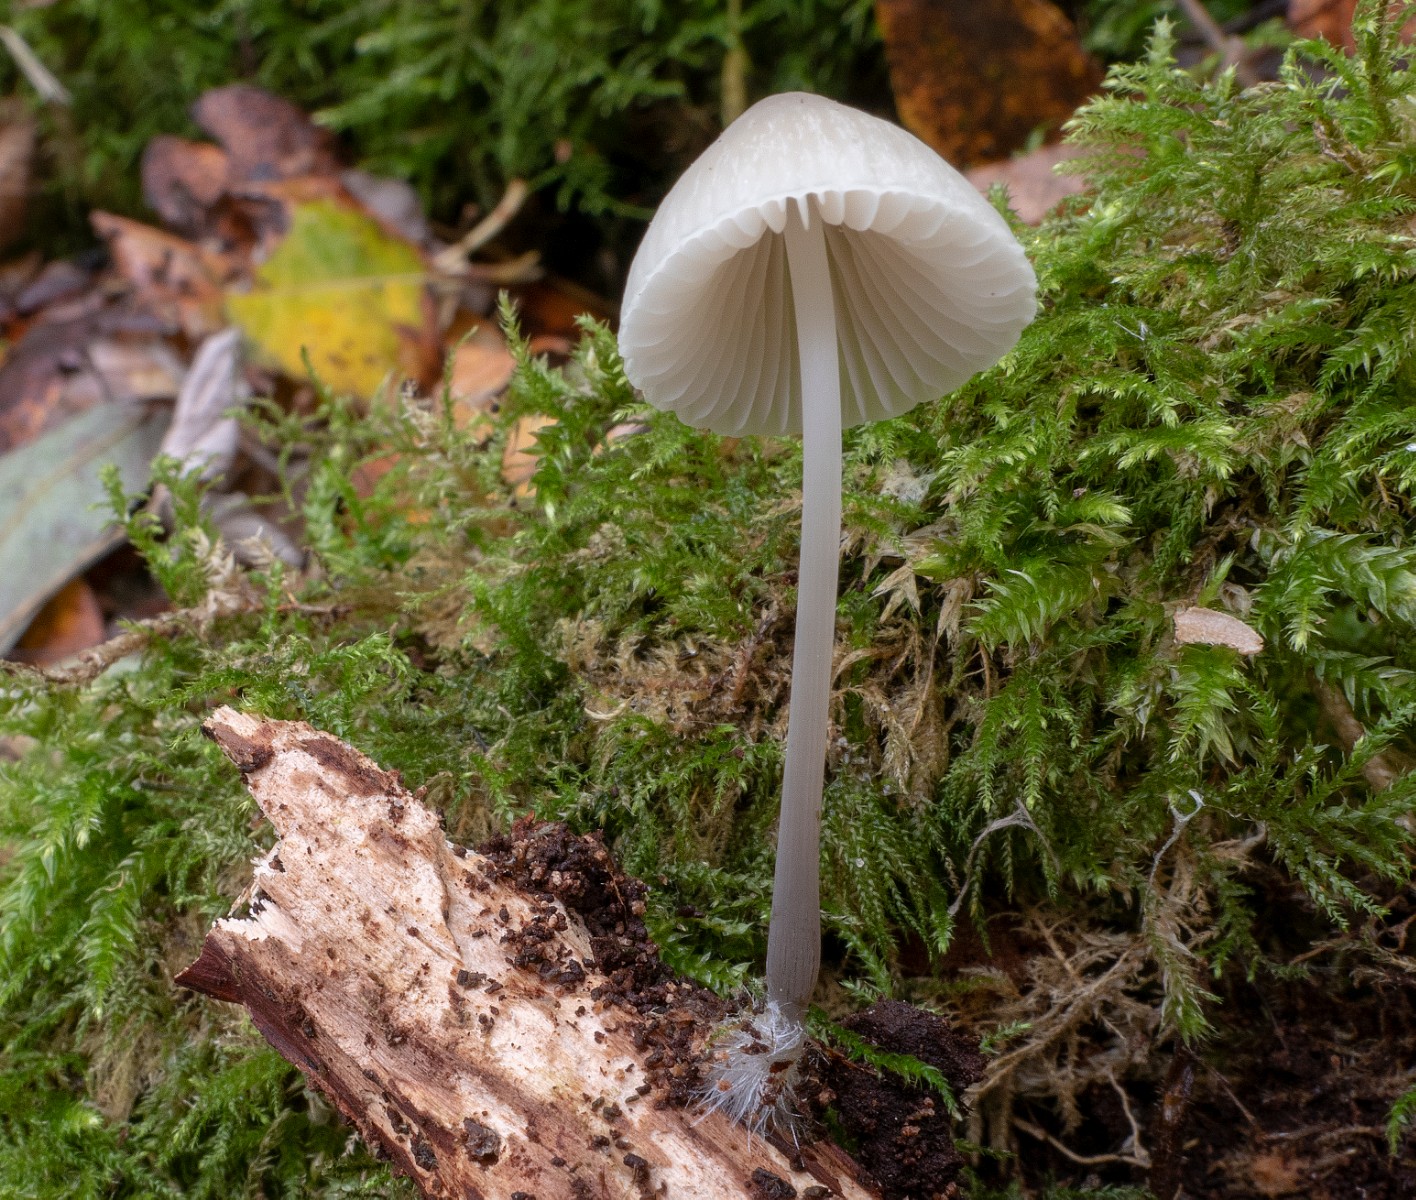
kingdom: Fungi
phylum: Basidiomycota
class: Agaricomycetes
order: Agaricales
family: Mycenaceae
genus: Mycena
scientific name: Mycena arcangeliana
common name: oliven-huesvamp
